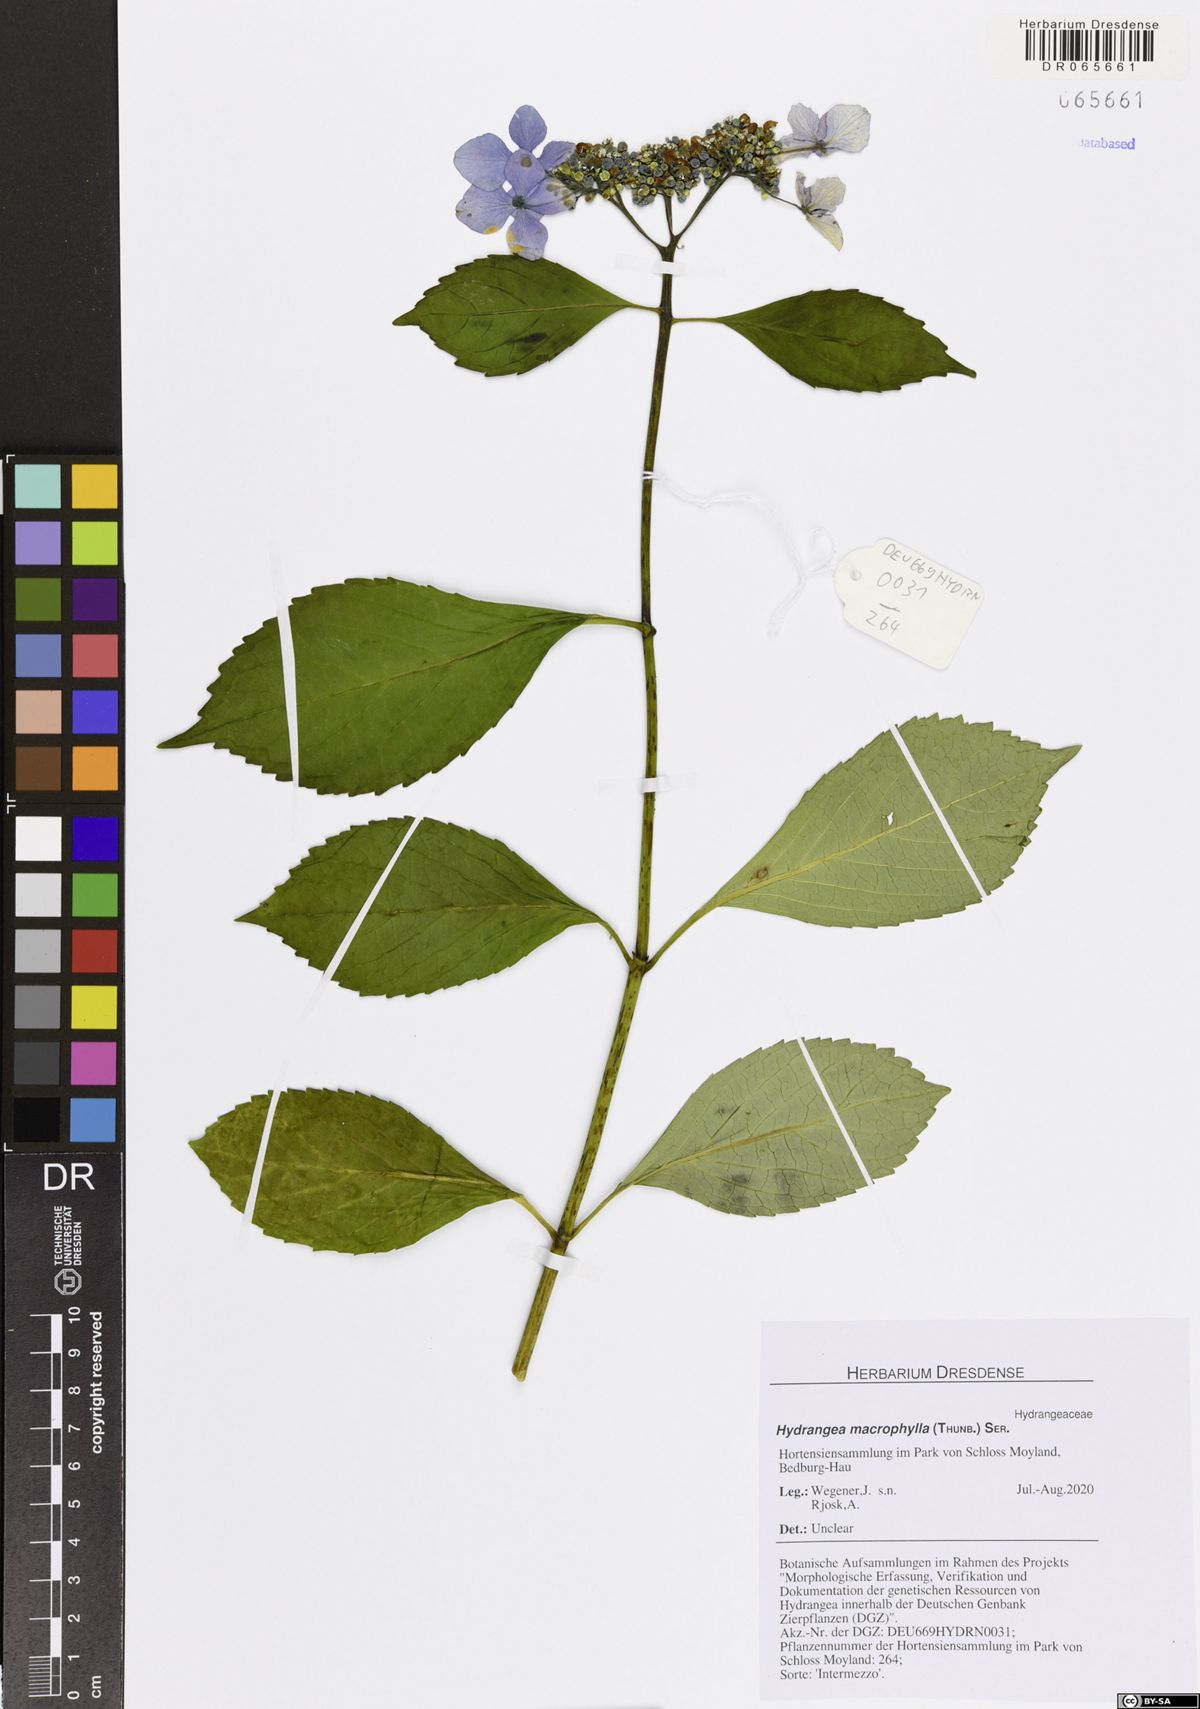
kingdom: Plantae
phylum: Tracheophyta
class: Magnoliopsida
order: Cornales
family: Hydrangeaceae
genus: Hydrangea
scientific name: Hydrangea macrophylla
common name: Hydrangea
